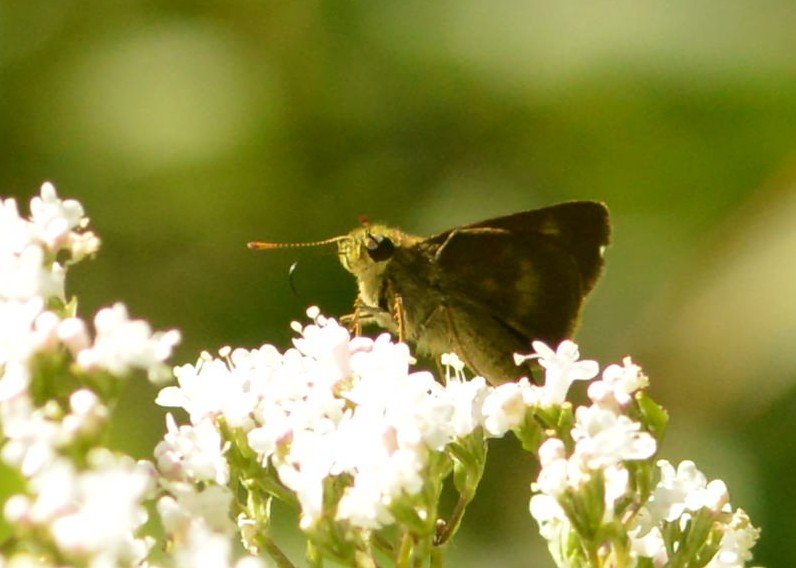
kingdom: Animalia
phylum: Arthropoda
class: Insecta
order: Lepidoptera
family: Hesperiidae
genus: Polites
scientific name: Polites egeremet
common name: Northern Broken-Dash
